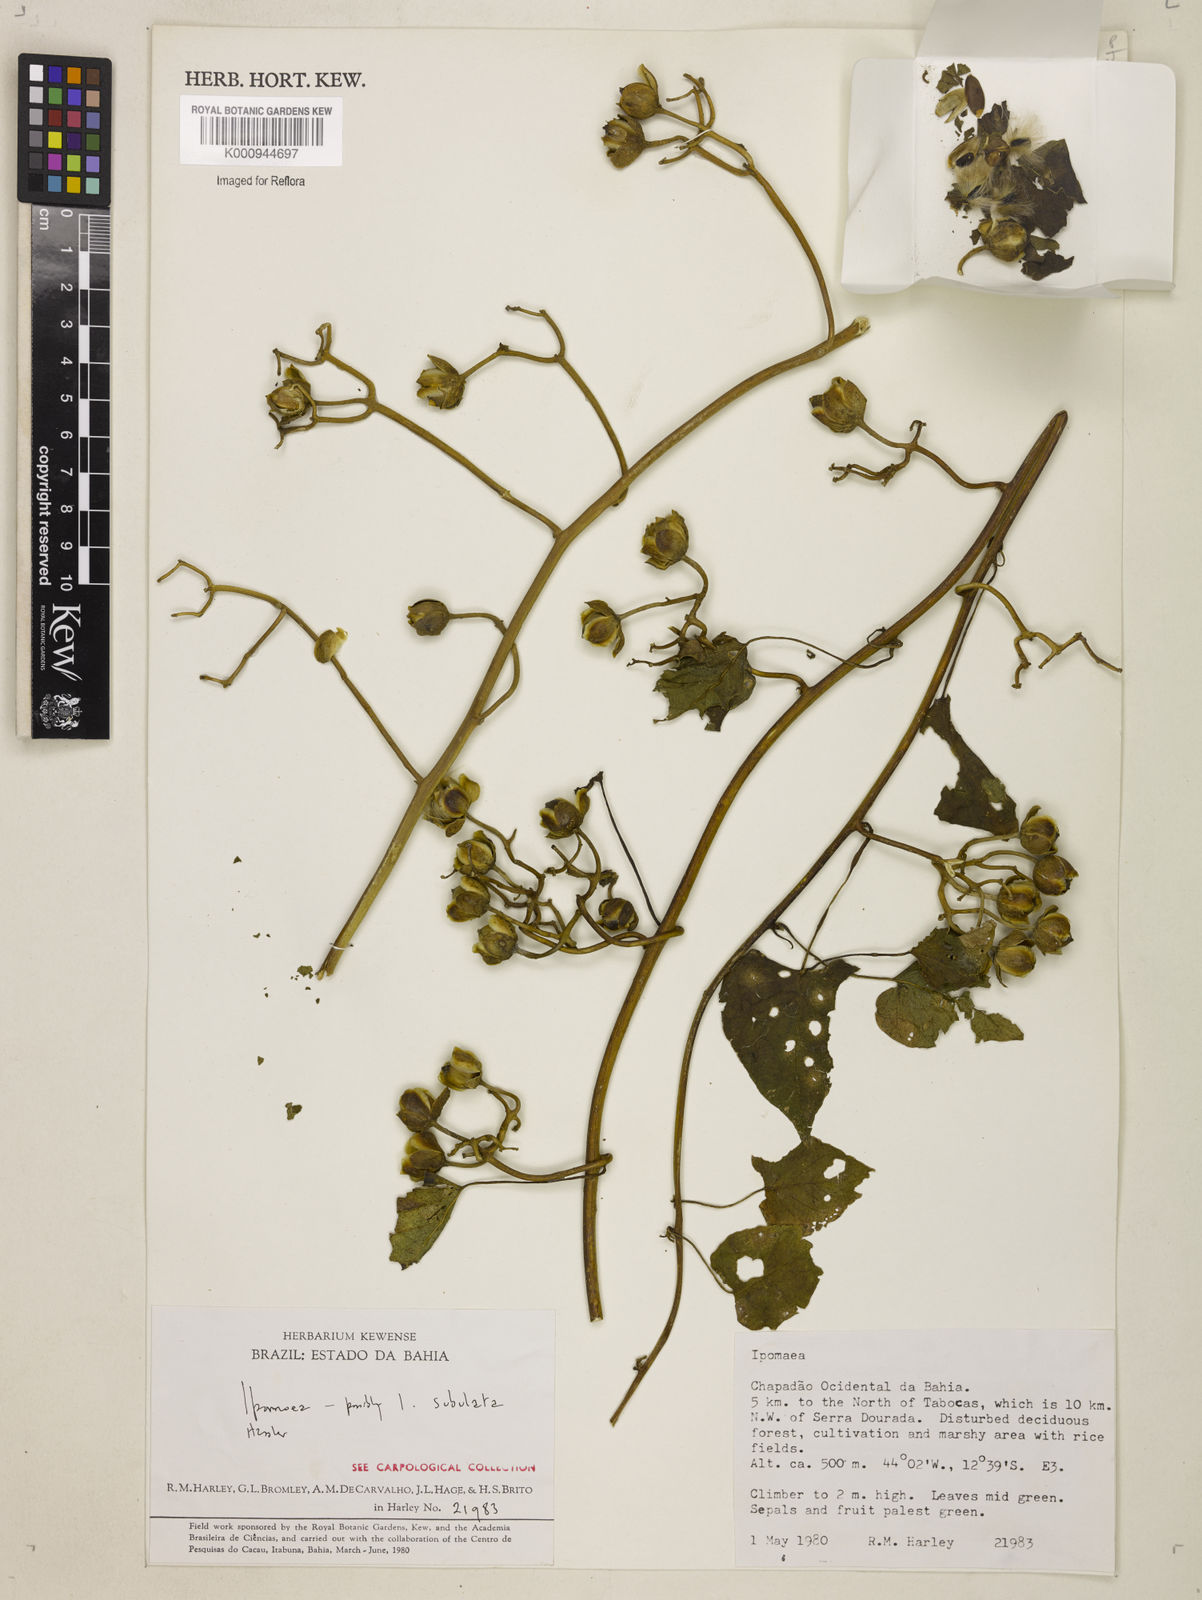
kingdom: Plantae
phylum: Tracheophyta
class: Magnoliopsida
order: Solanales
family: Convolvulaceae
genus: Ipomoea
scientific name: Ipomoea
